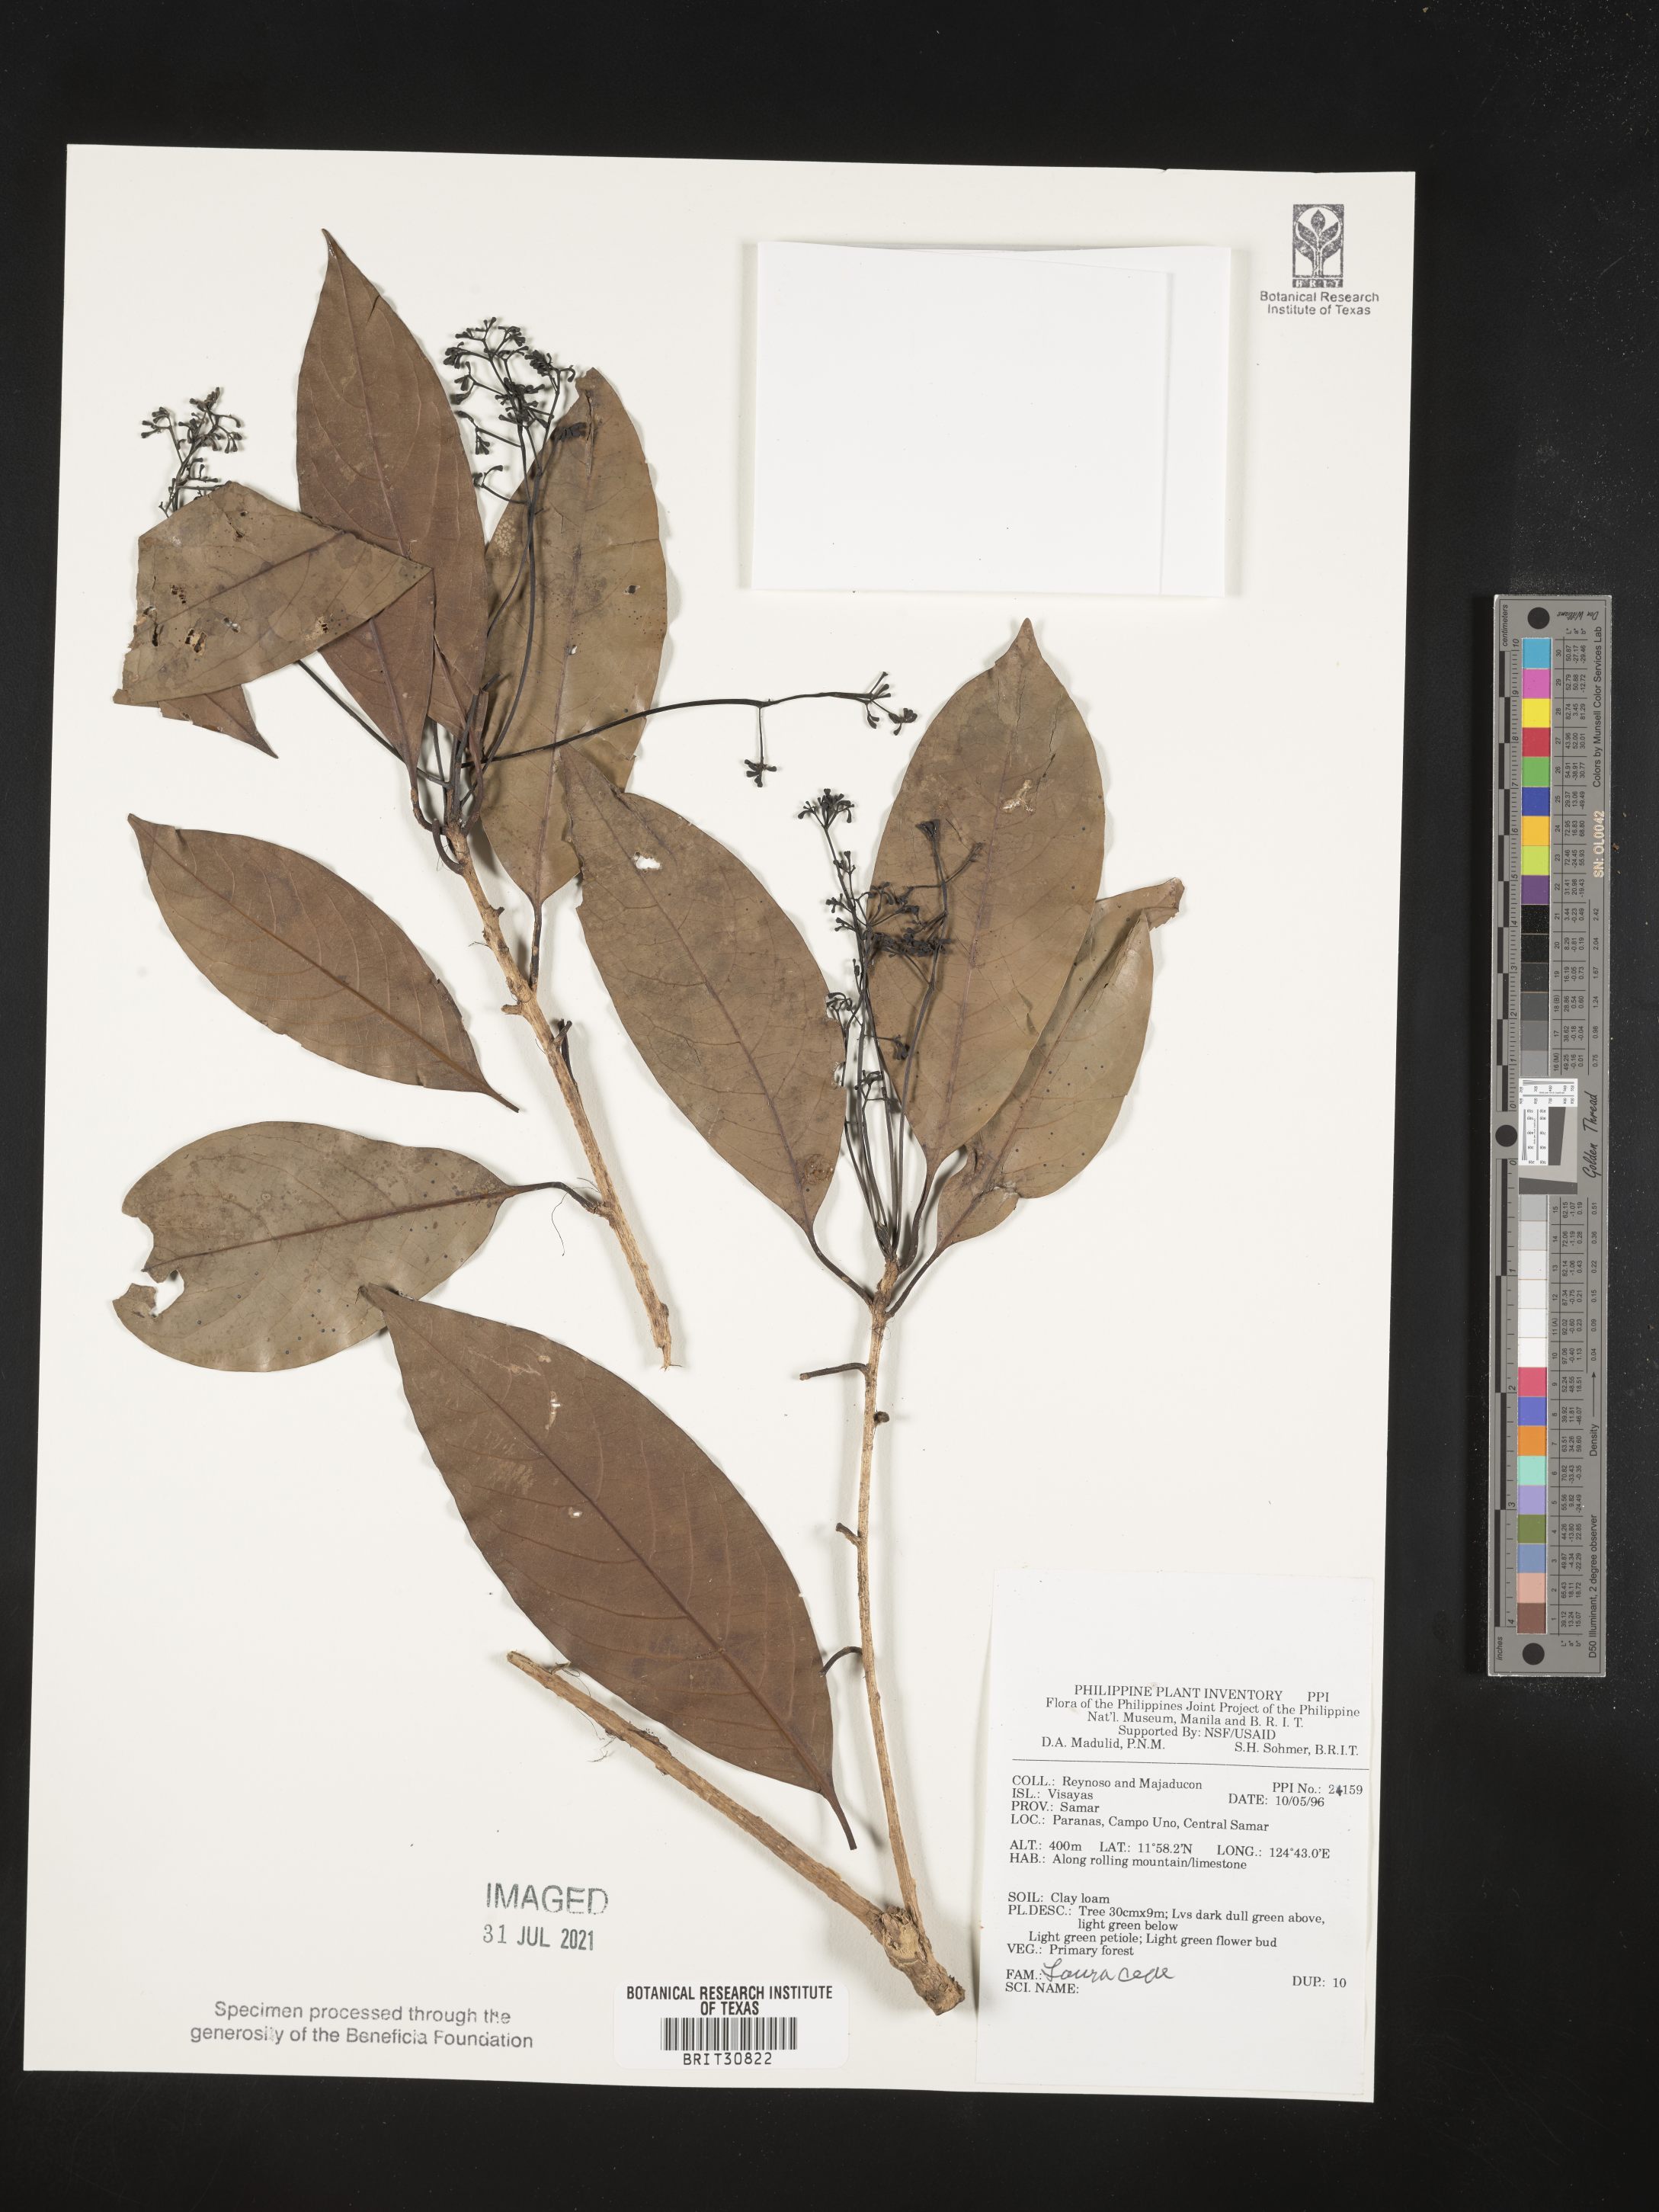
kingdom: Plantae
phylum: Tracheophyta
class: Magnoliopsida
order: Laurales
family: Lauraceae
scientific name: Lauraceae
